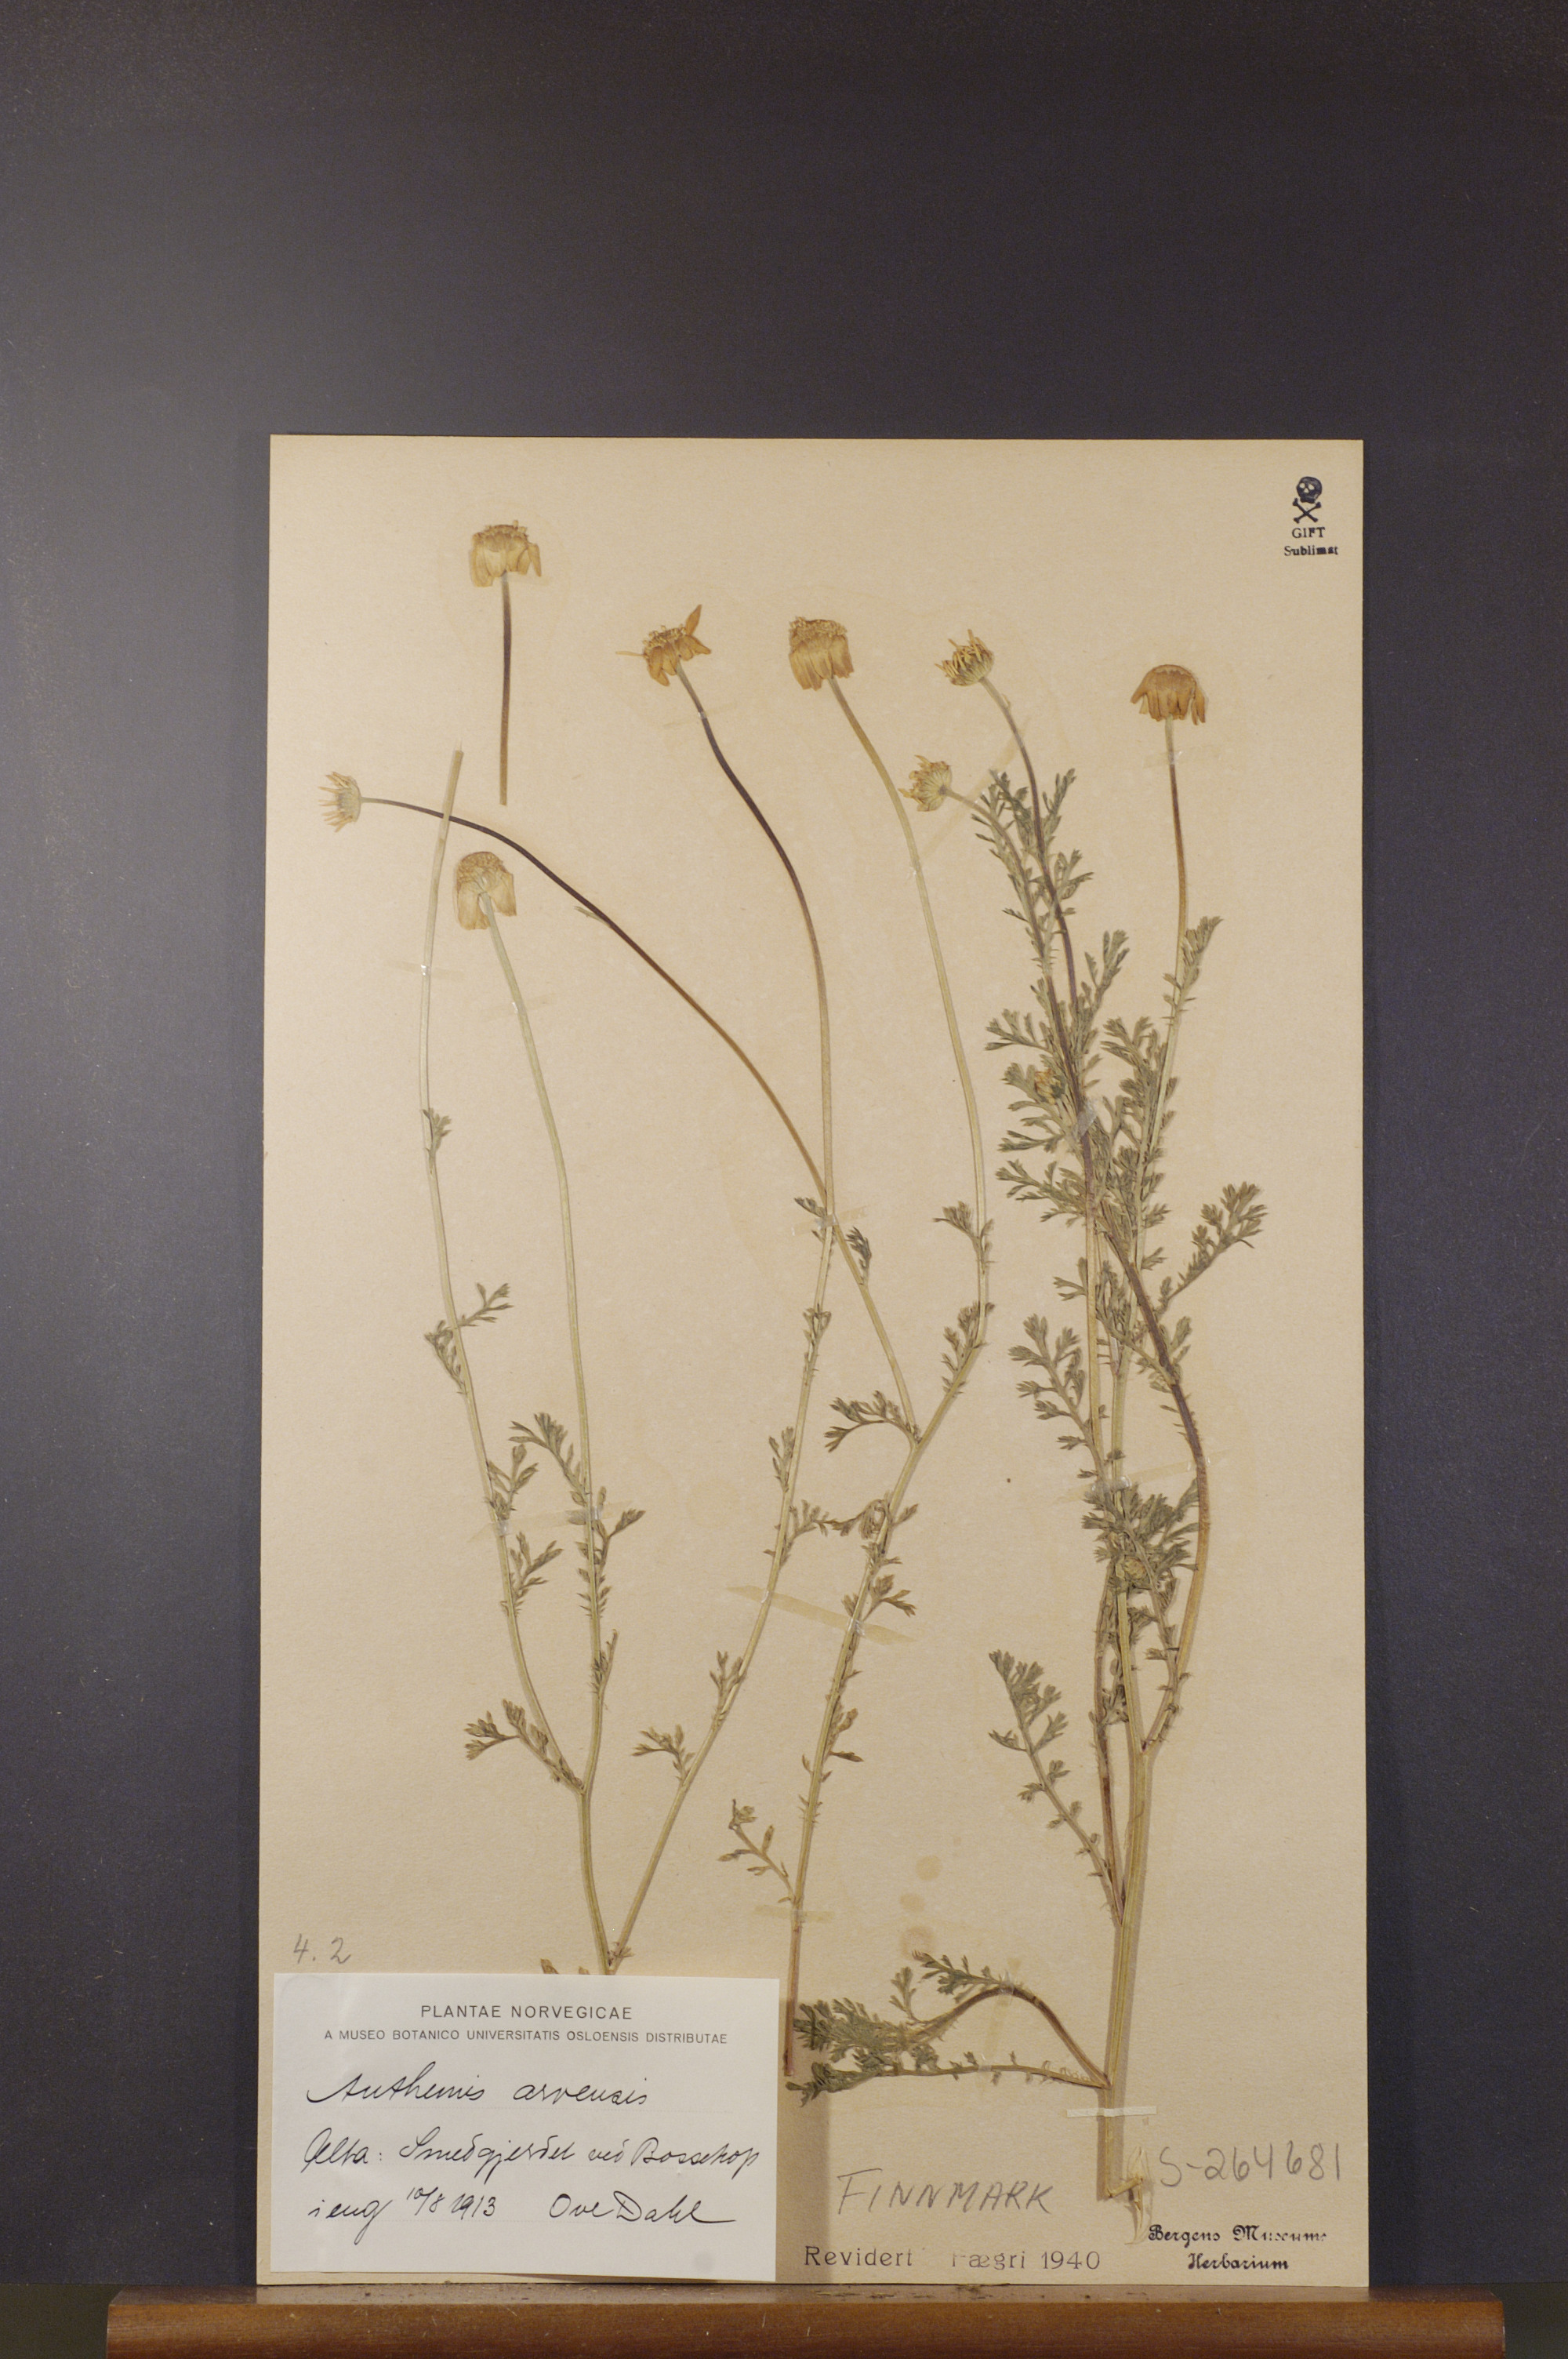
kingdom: Plantae
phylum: Tracheophyta
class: Magnoliopsida
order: Asterales
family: Asteraceae
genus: Anthemis
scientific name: Anthemis arvensis
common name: Corn chamomile
